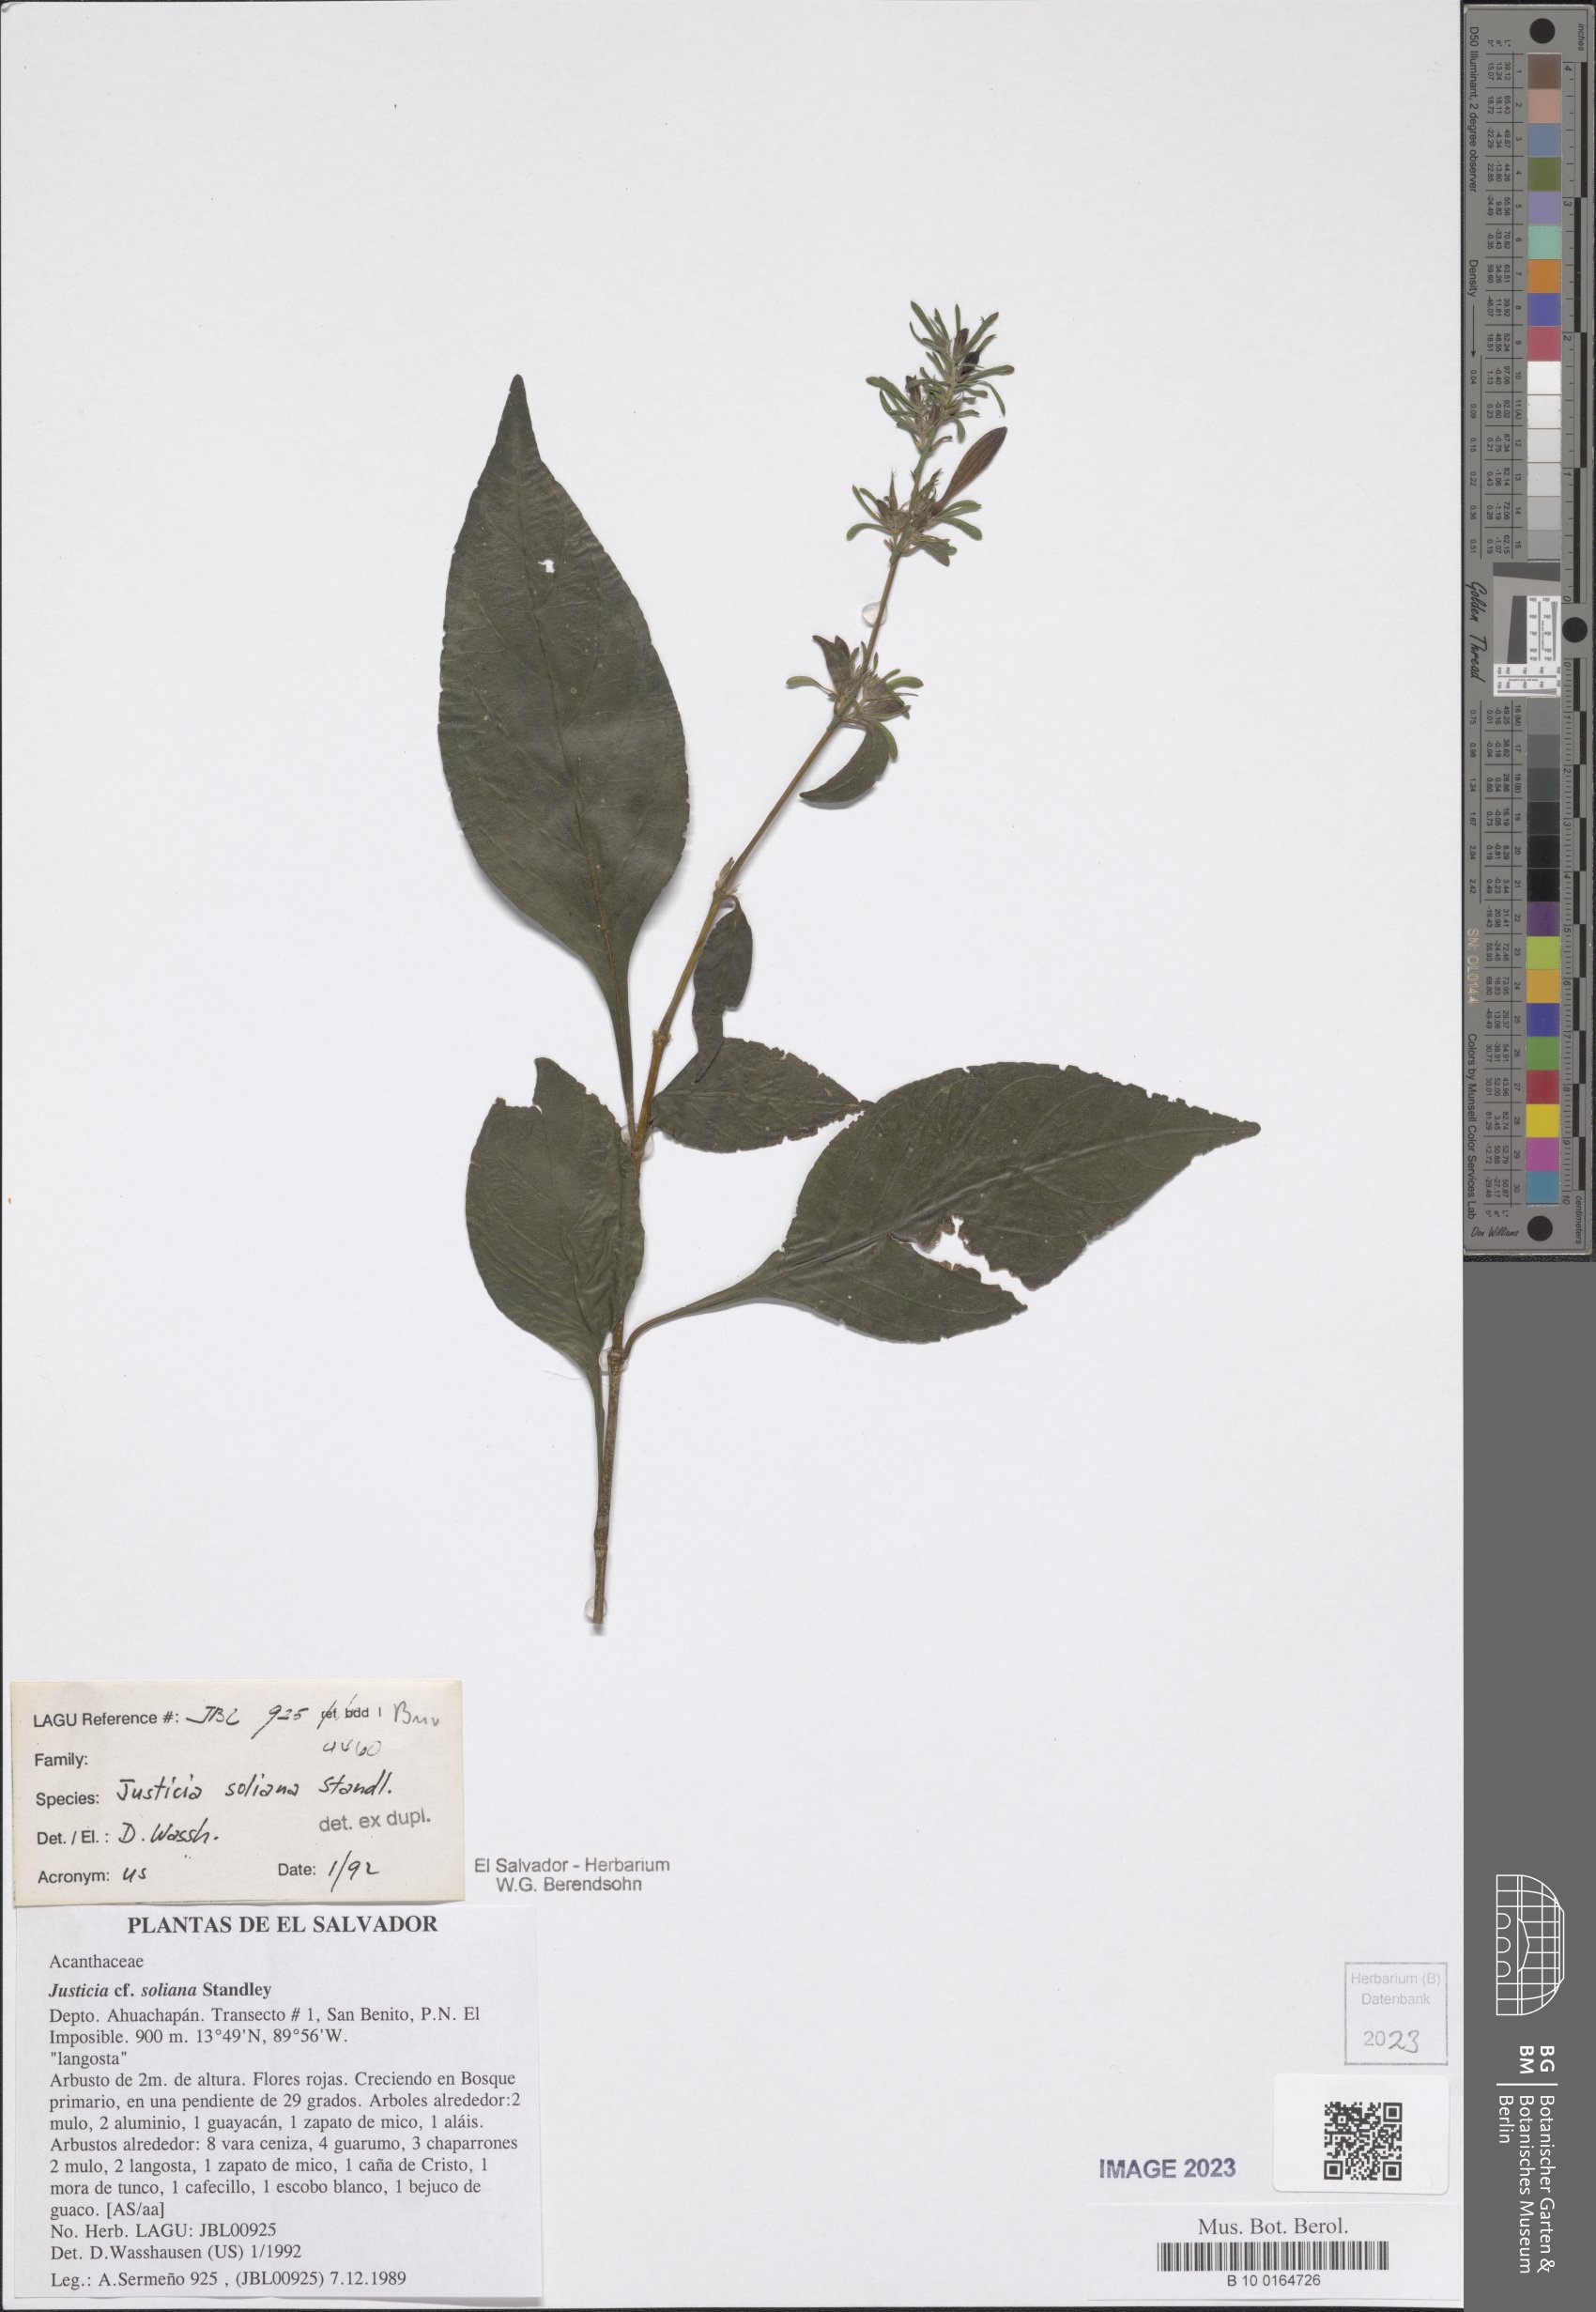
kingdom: Plantae
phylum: Tracheophyta
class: Magnoliopsida
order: Lamiales
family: Acanthaceae
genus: Justicia
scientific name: Justicia soliana
